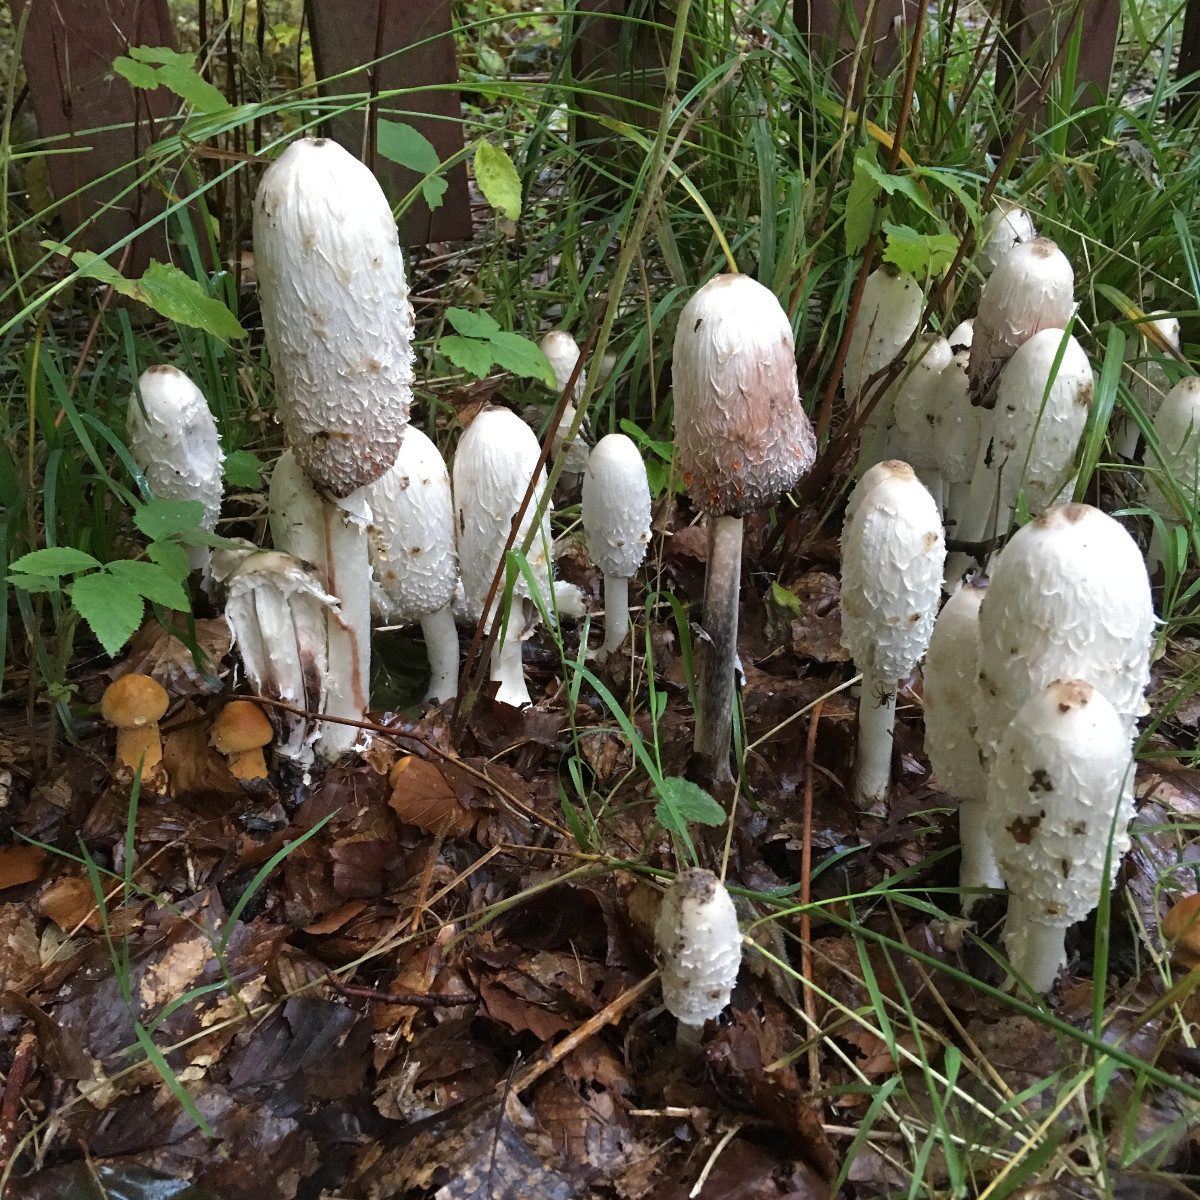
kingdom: Fungi
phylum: Basidiomycota
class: Agaricomycetes
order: Agaricales
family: Agaricaceae
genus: Coprinus
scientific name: Coprinus comatus
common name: stor parykhat
